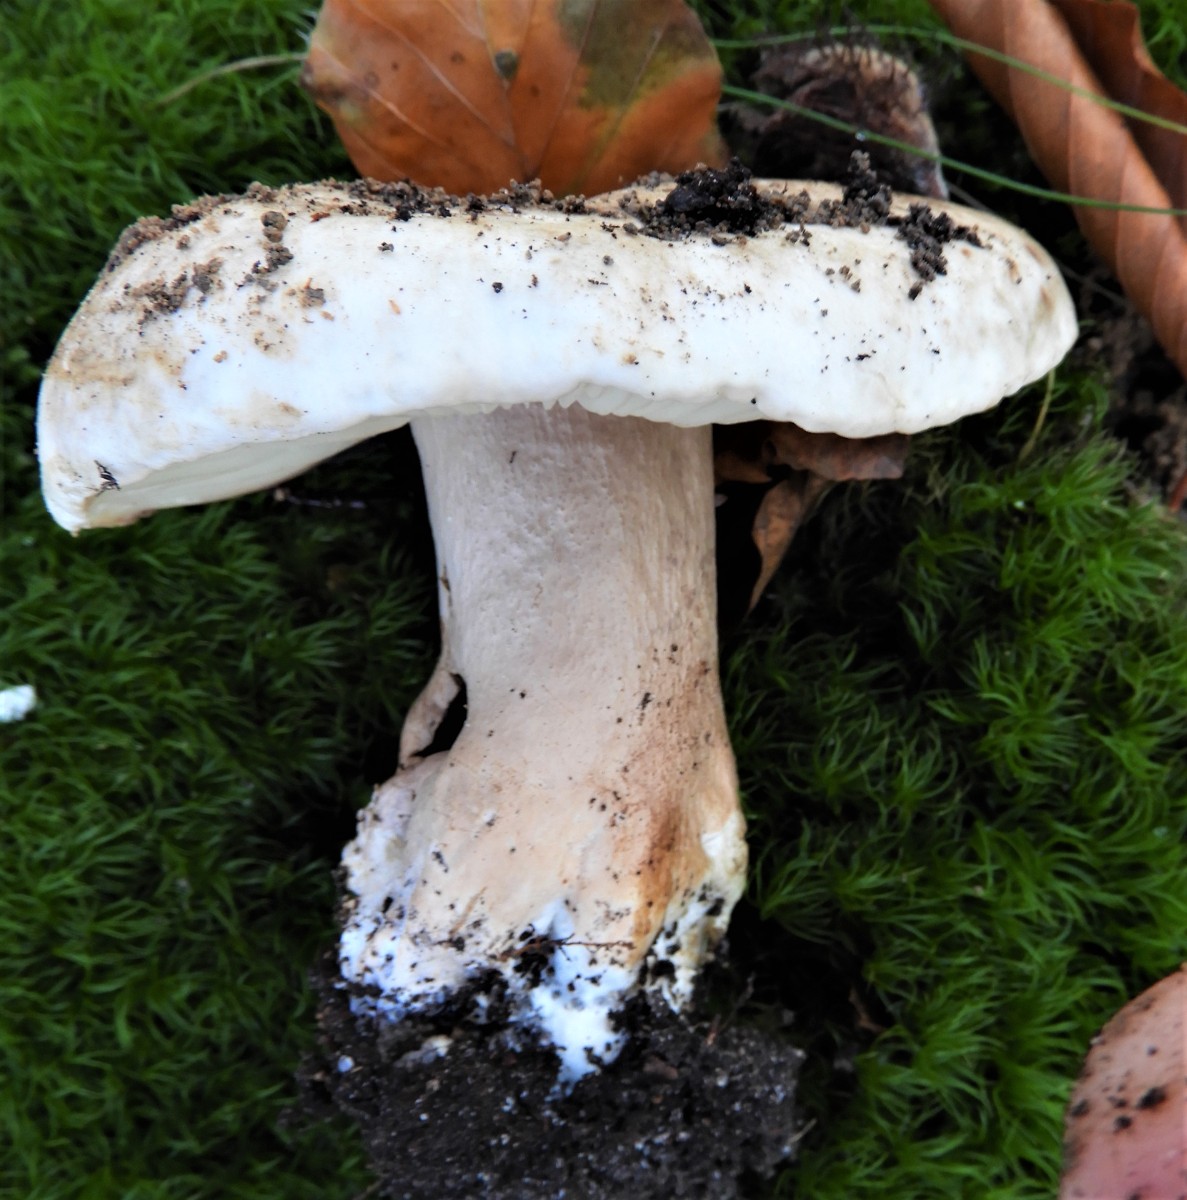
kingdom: Fungi
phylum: Basidiomycota
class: Agaricomycetes
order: Russulales
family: Russulaceae
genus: Russula
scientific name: Russula adusta
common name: sværtende skørhat
